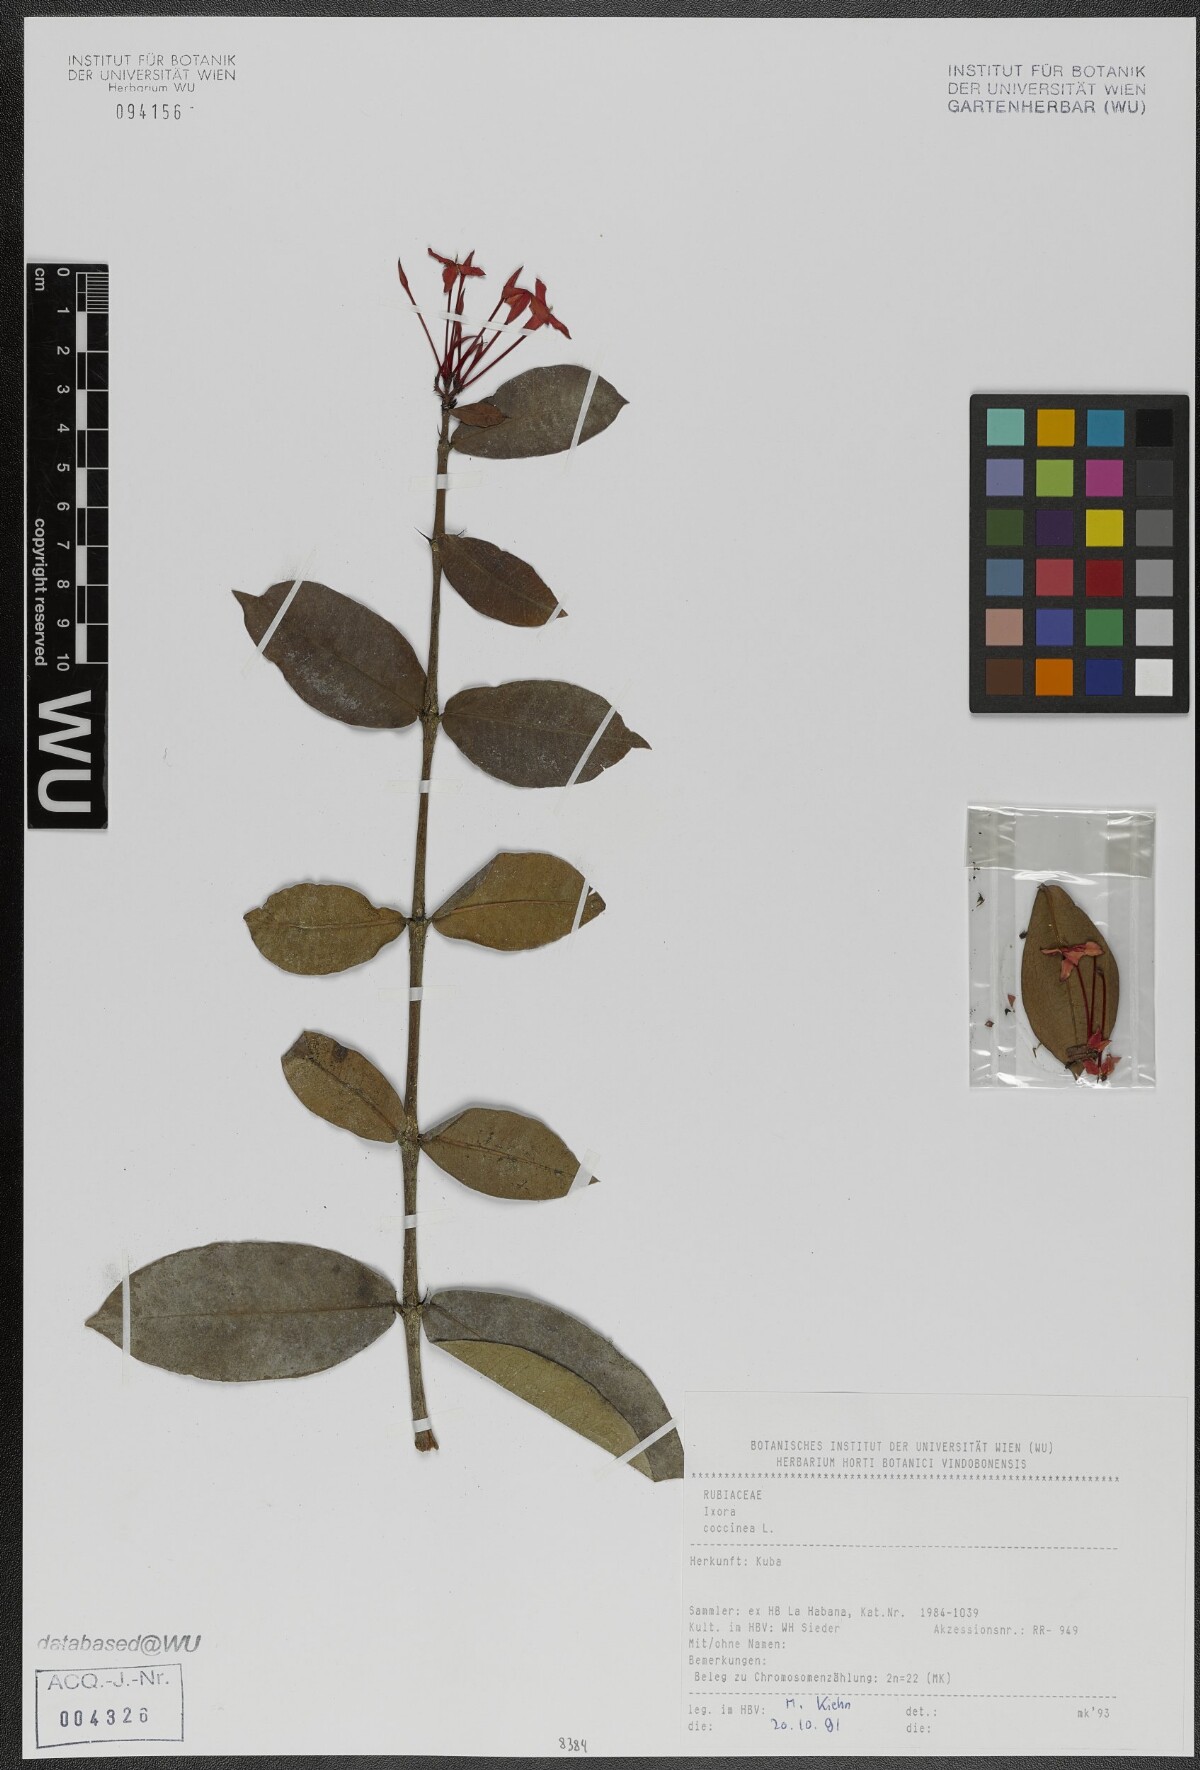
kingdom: Plantae
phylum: Tracheophyta
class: Magnoliopsida
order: Gentianales
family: Rubiaceae
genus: Ixora
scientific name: Ixora coccinea
